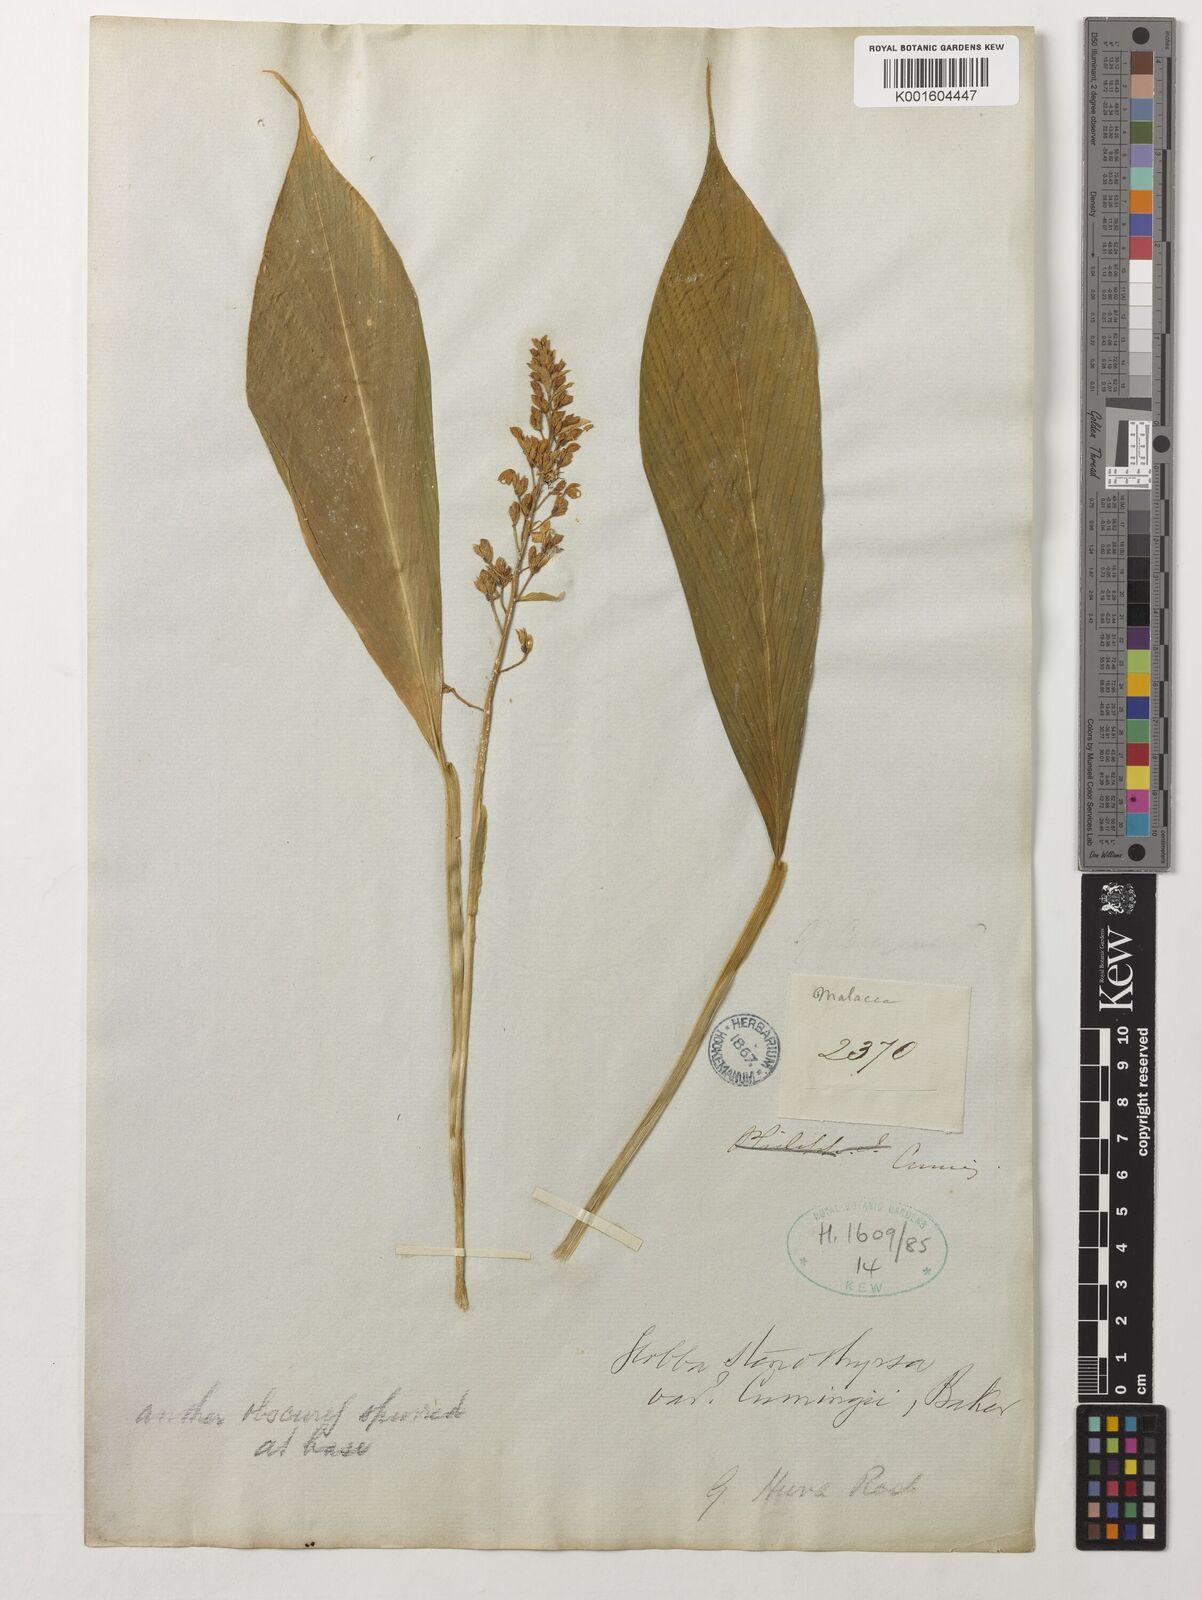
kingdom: Plantae
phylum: Tracheophyta
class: Liliopsida
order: Zingiberales
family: Zingiberaceae
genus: Globba
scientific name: Globba leucantha
